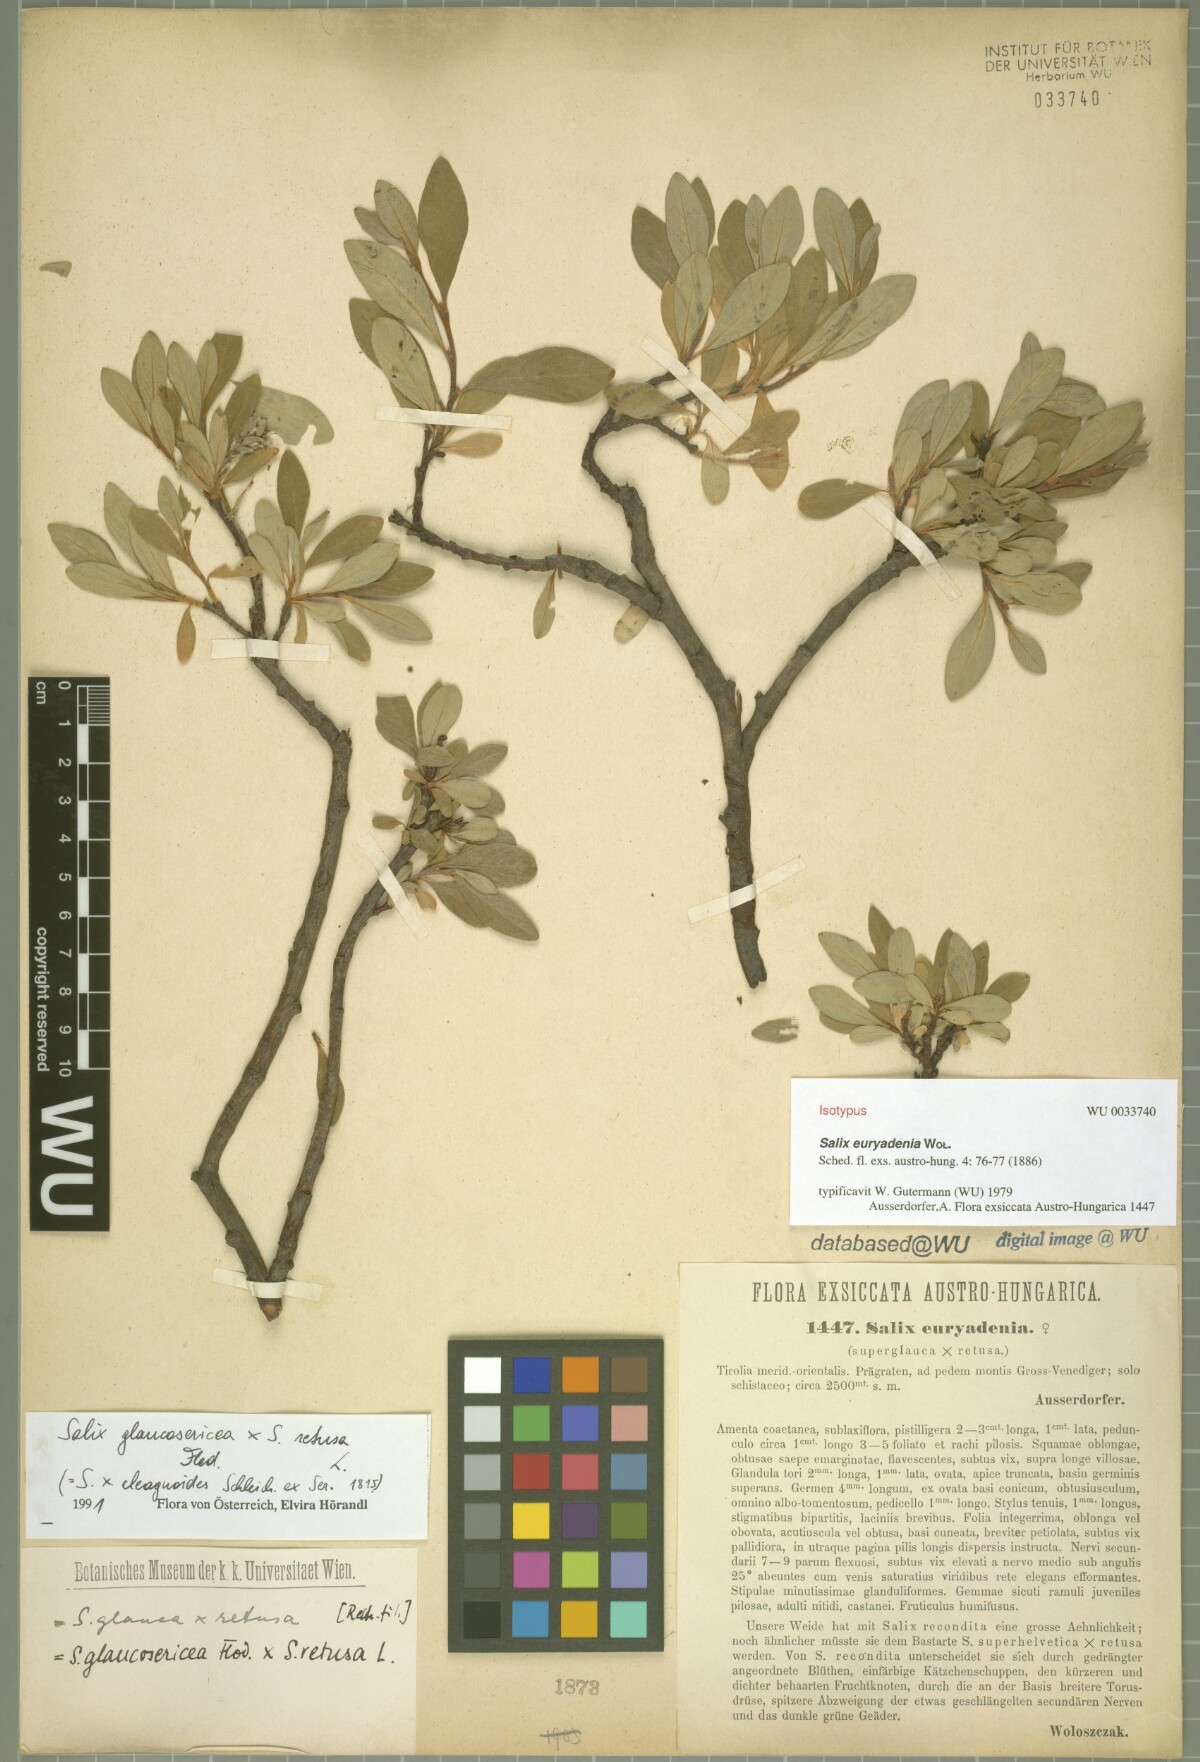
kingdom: Plantae
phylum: Tracheophyta
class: Magnoliopsida
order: Malpighiales
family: Salicaceae
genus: Salix
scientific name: Salix ausserdorferi
